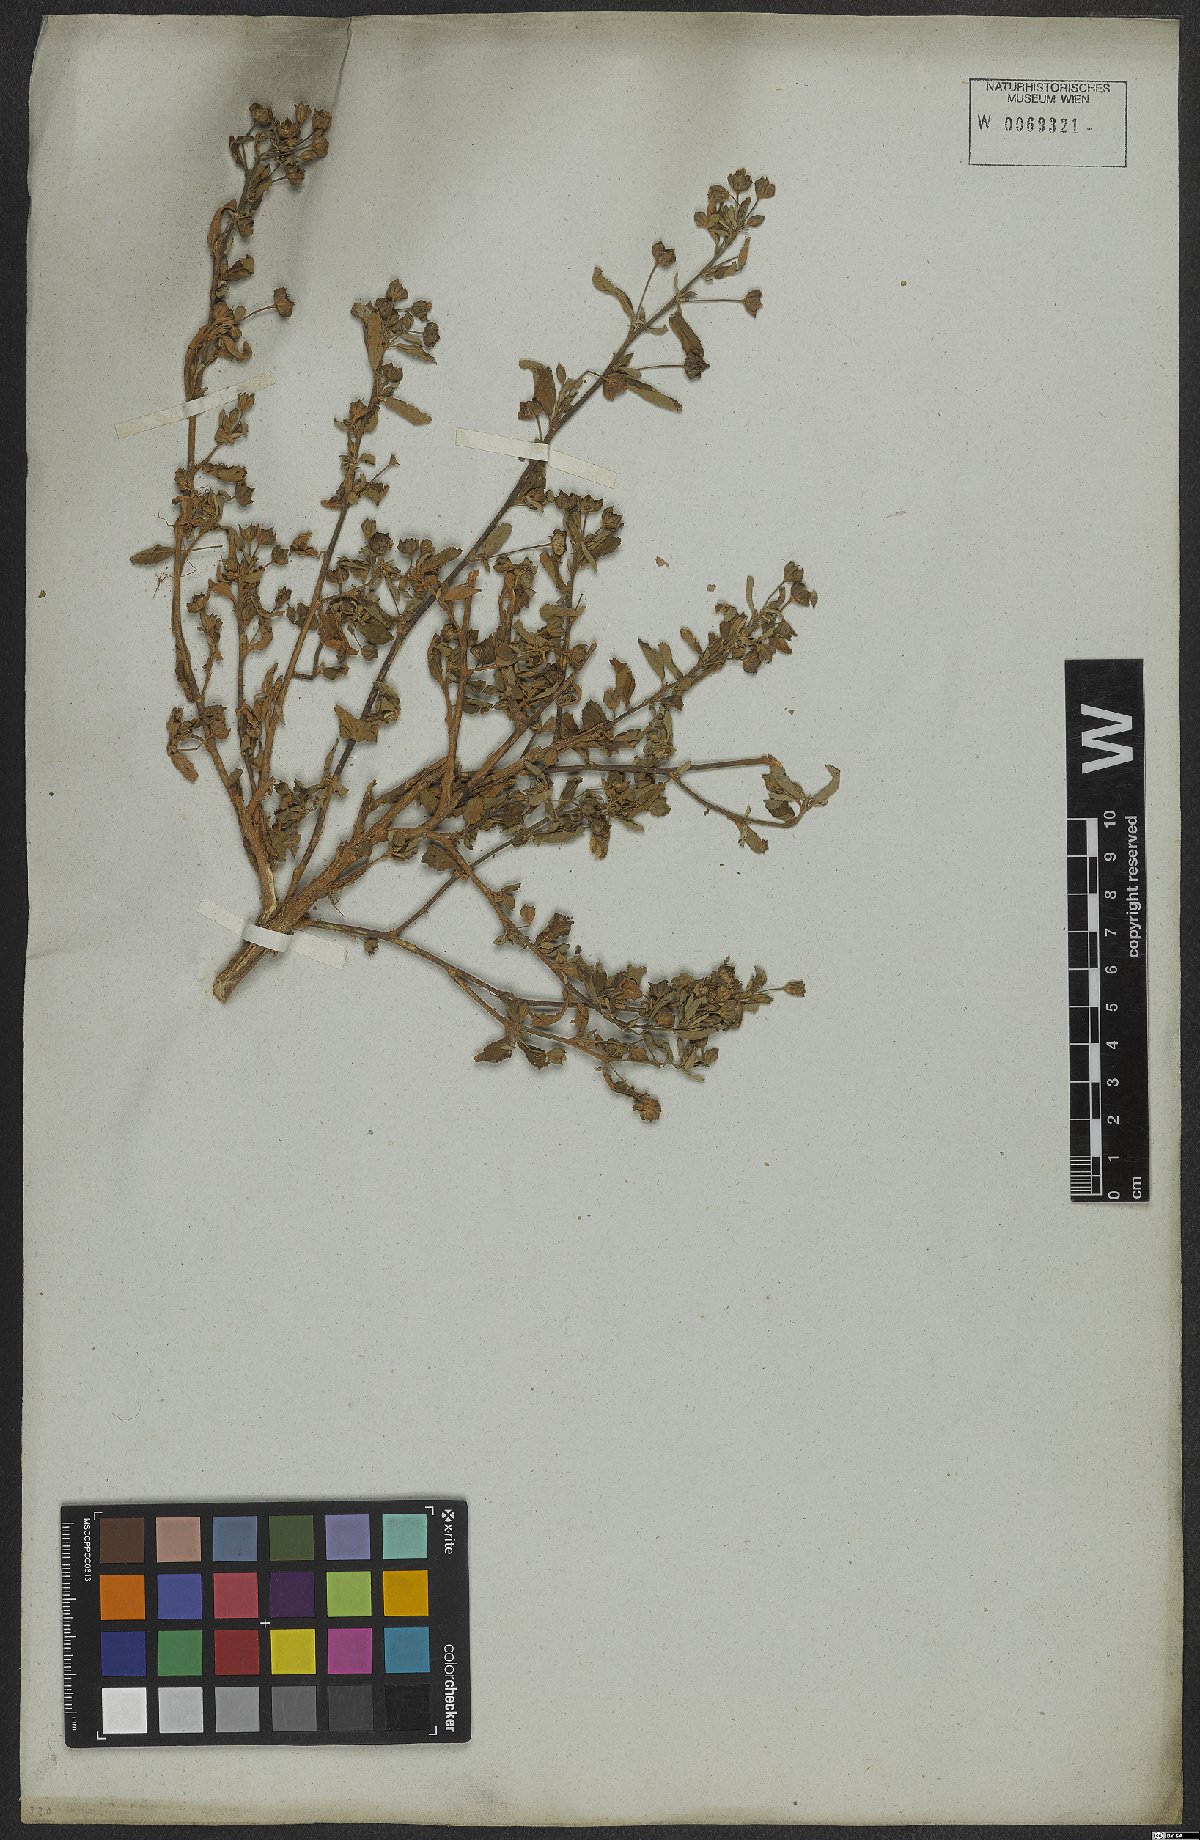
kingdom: Plantae
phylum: Tracheophyta
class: Magnoliopsida
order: Malvales
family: Malvaceae
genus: Sida
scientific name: Sida rhombifolia
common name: Queensland-hemp
